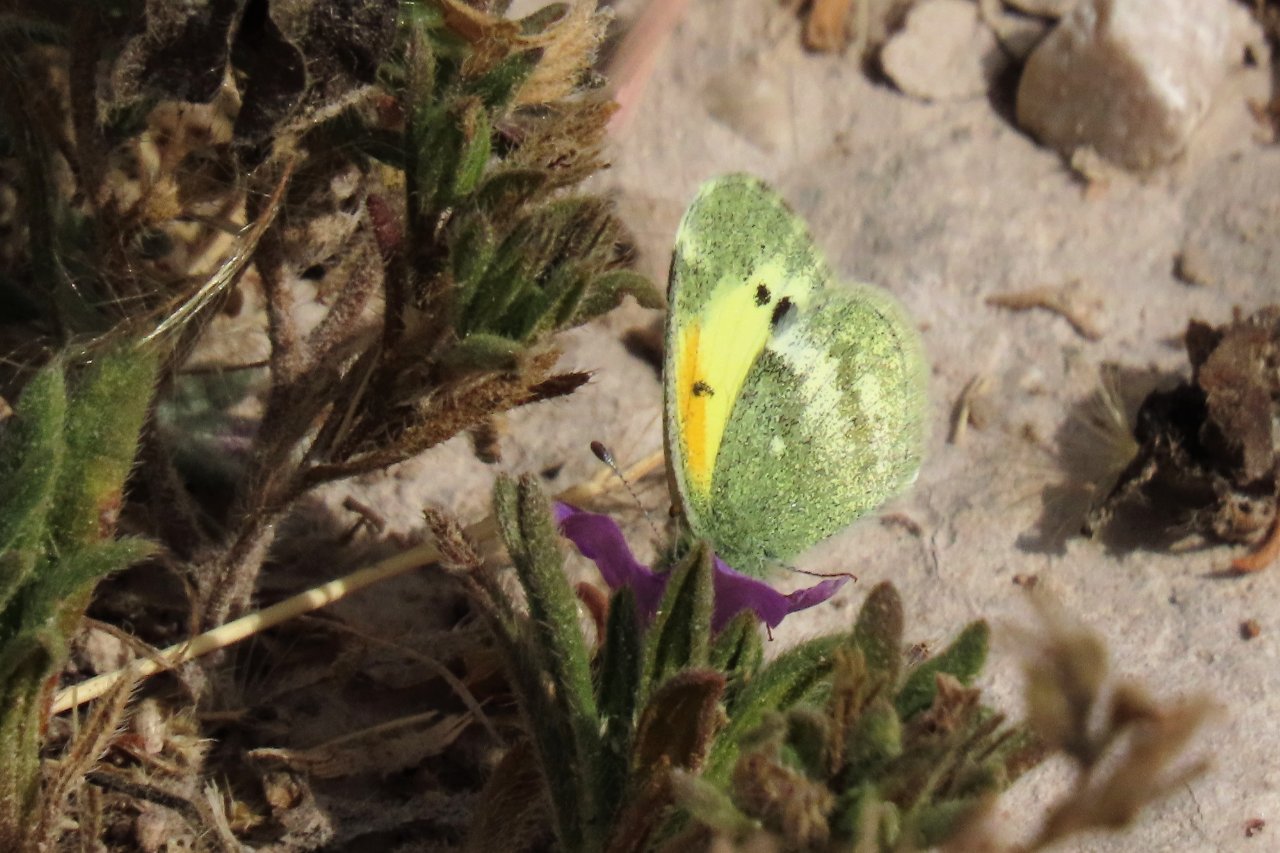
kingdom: Animalia
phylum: Arthropoda
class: Insecta
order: Lepidoptera
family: Pieridae
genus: Nathalis
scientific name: Nathalis iole
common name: Dainty Sulphur
